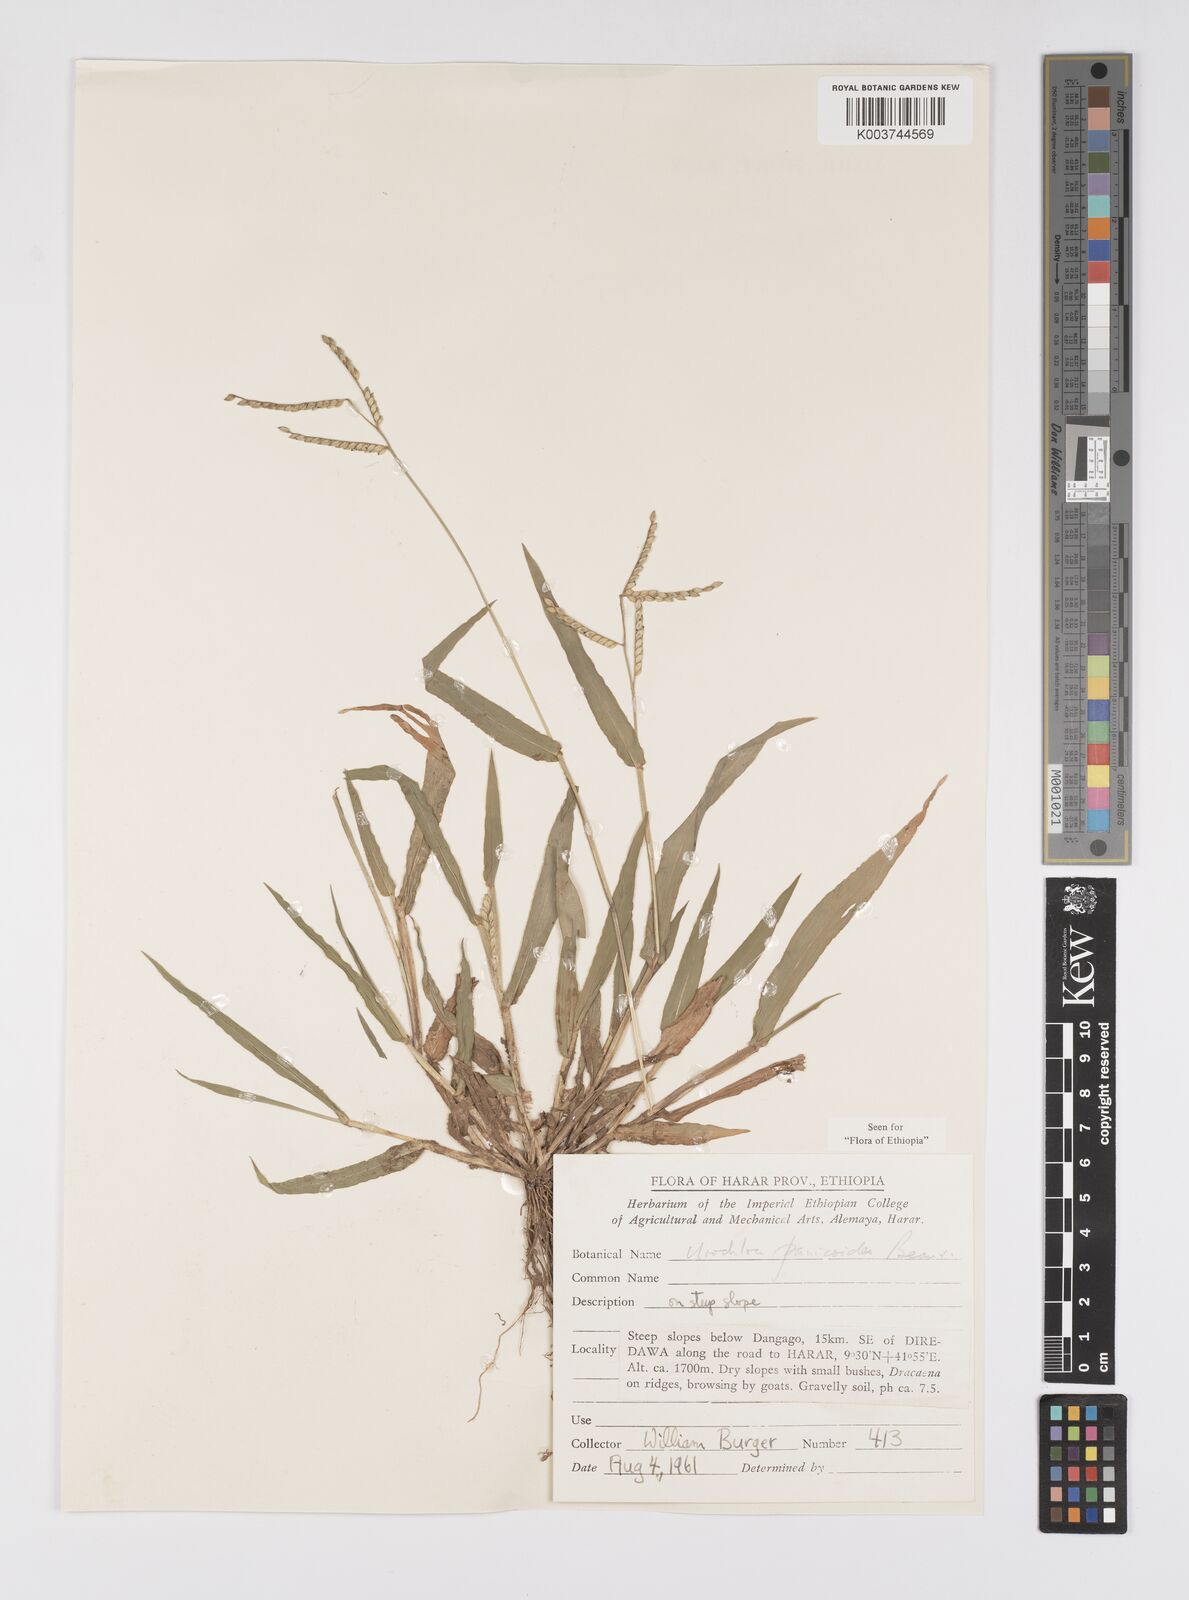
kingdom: Plantae
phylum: Tracheophyta
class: Liliopsida
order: Poales
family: Poaceae
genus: Urochloa
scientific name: Urochloa panicoides
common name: Sharp-flowered signal-grass
